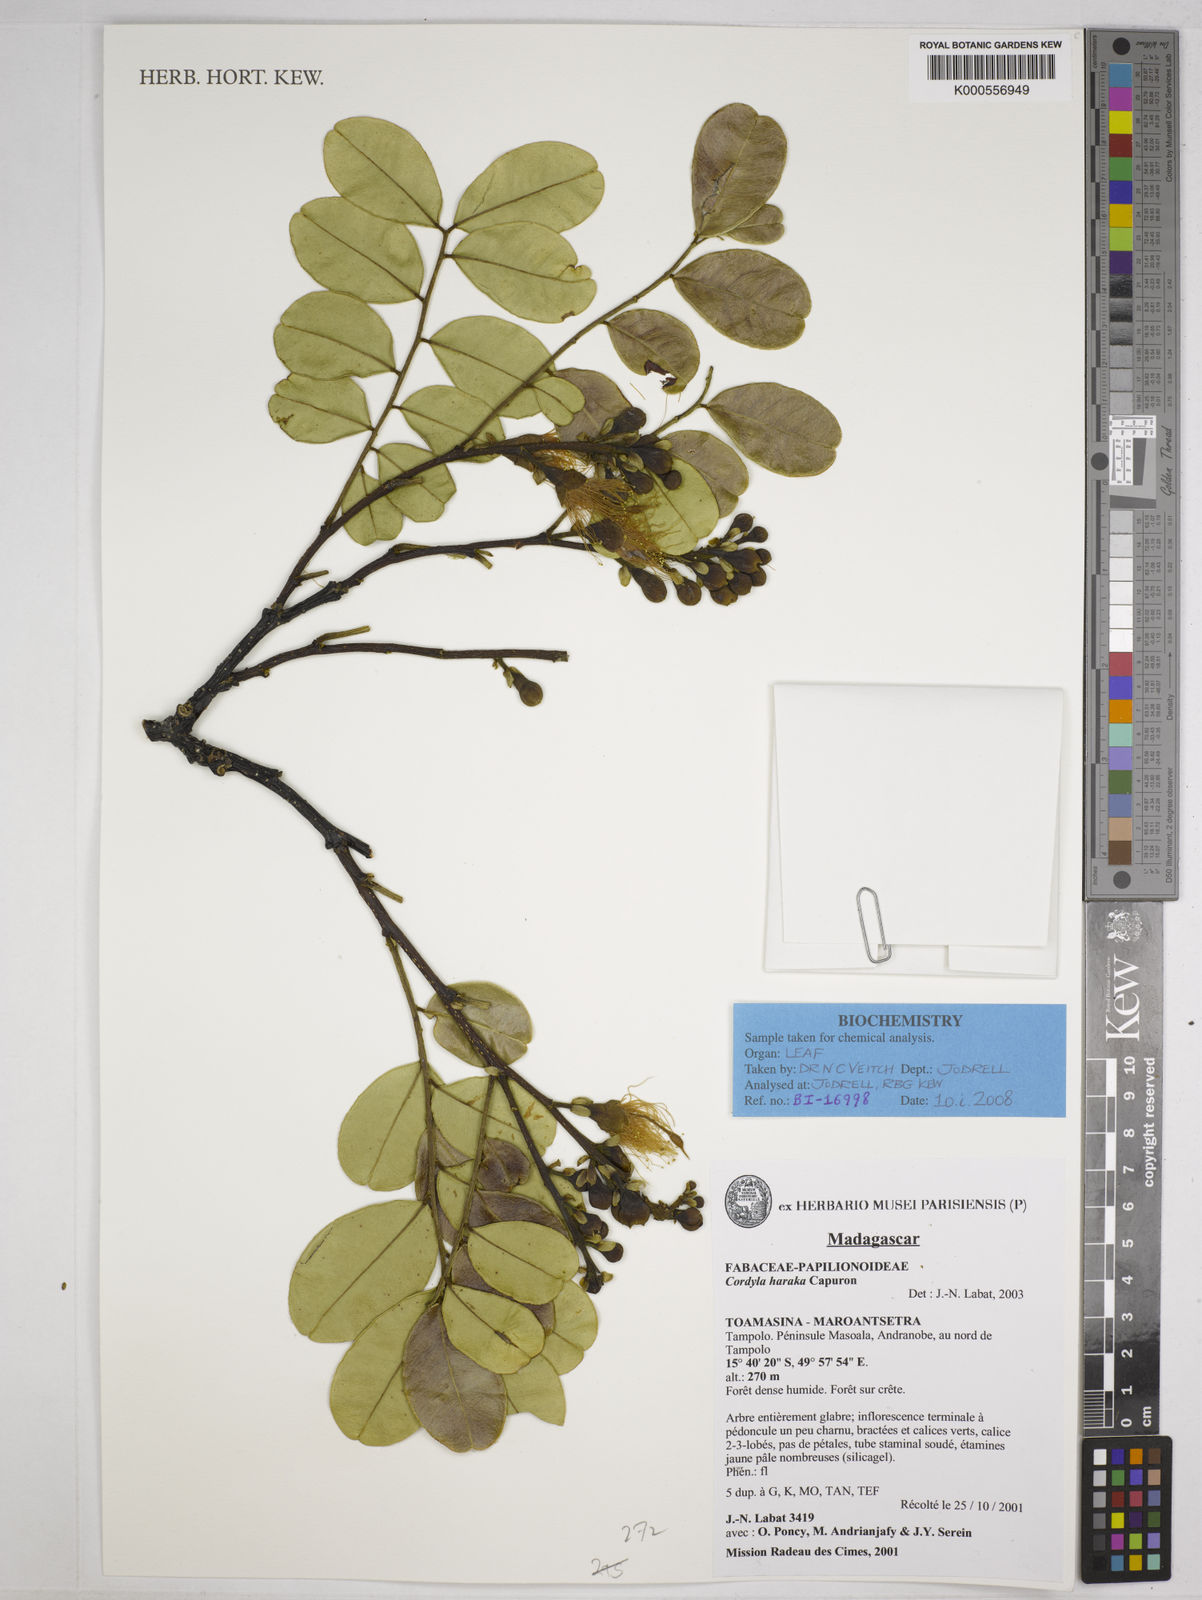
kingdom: Plantae
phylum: Tracheophyta
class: Magnoliopsida
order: Fabales
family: Fabaceae
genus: Cordyla
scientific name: Cordyla haraka
